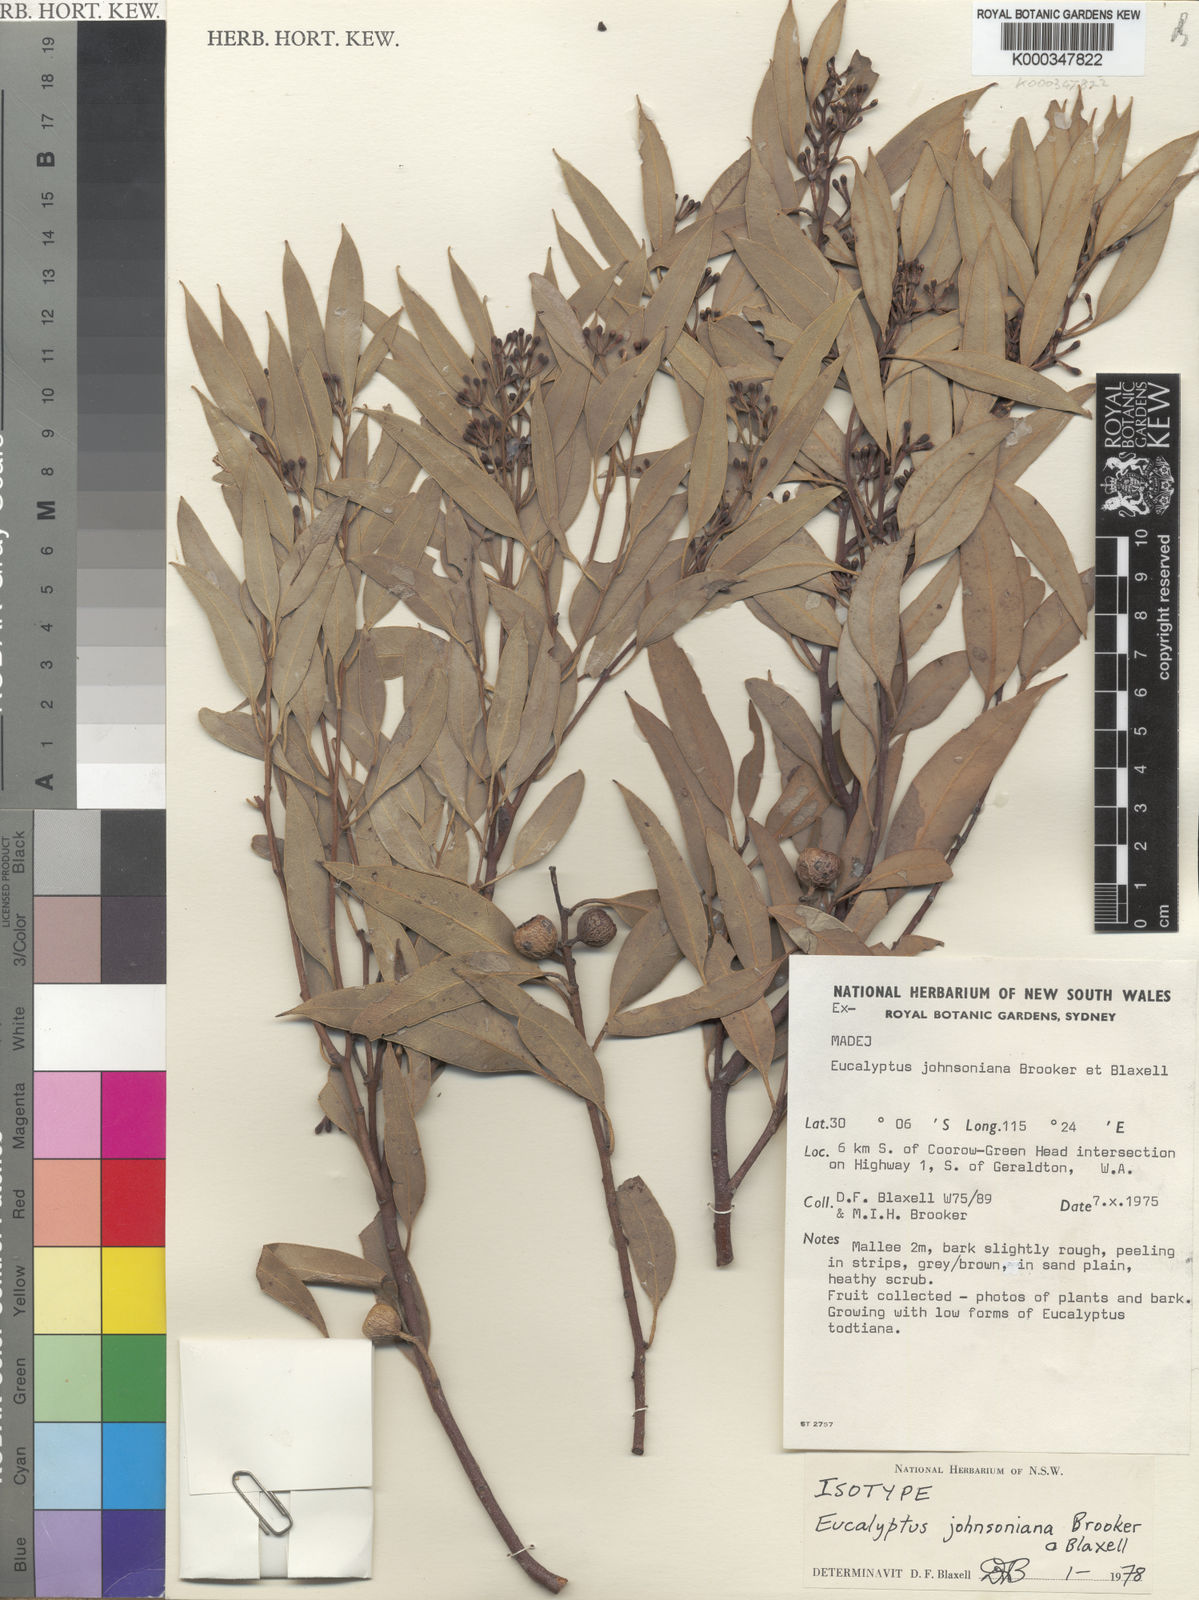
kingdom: Plantae
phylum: Tracheophyta
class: Magnoliopsida
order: Myrtales
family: Myrtaceae
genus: Eucalyptus
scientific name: Eucalyptus johnsoniana
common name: Johnsons mallee
